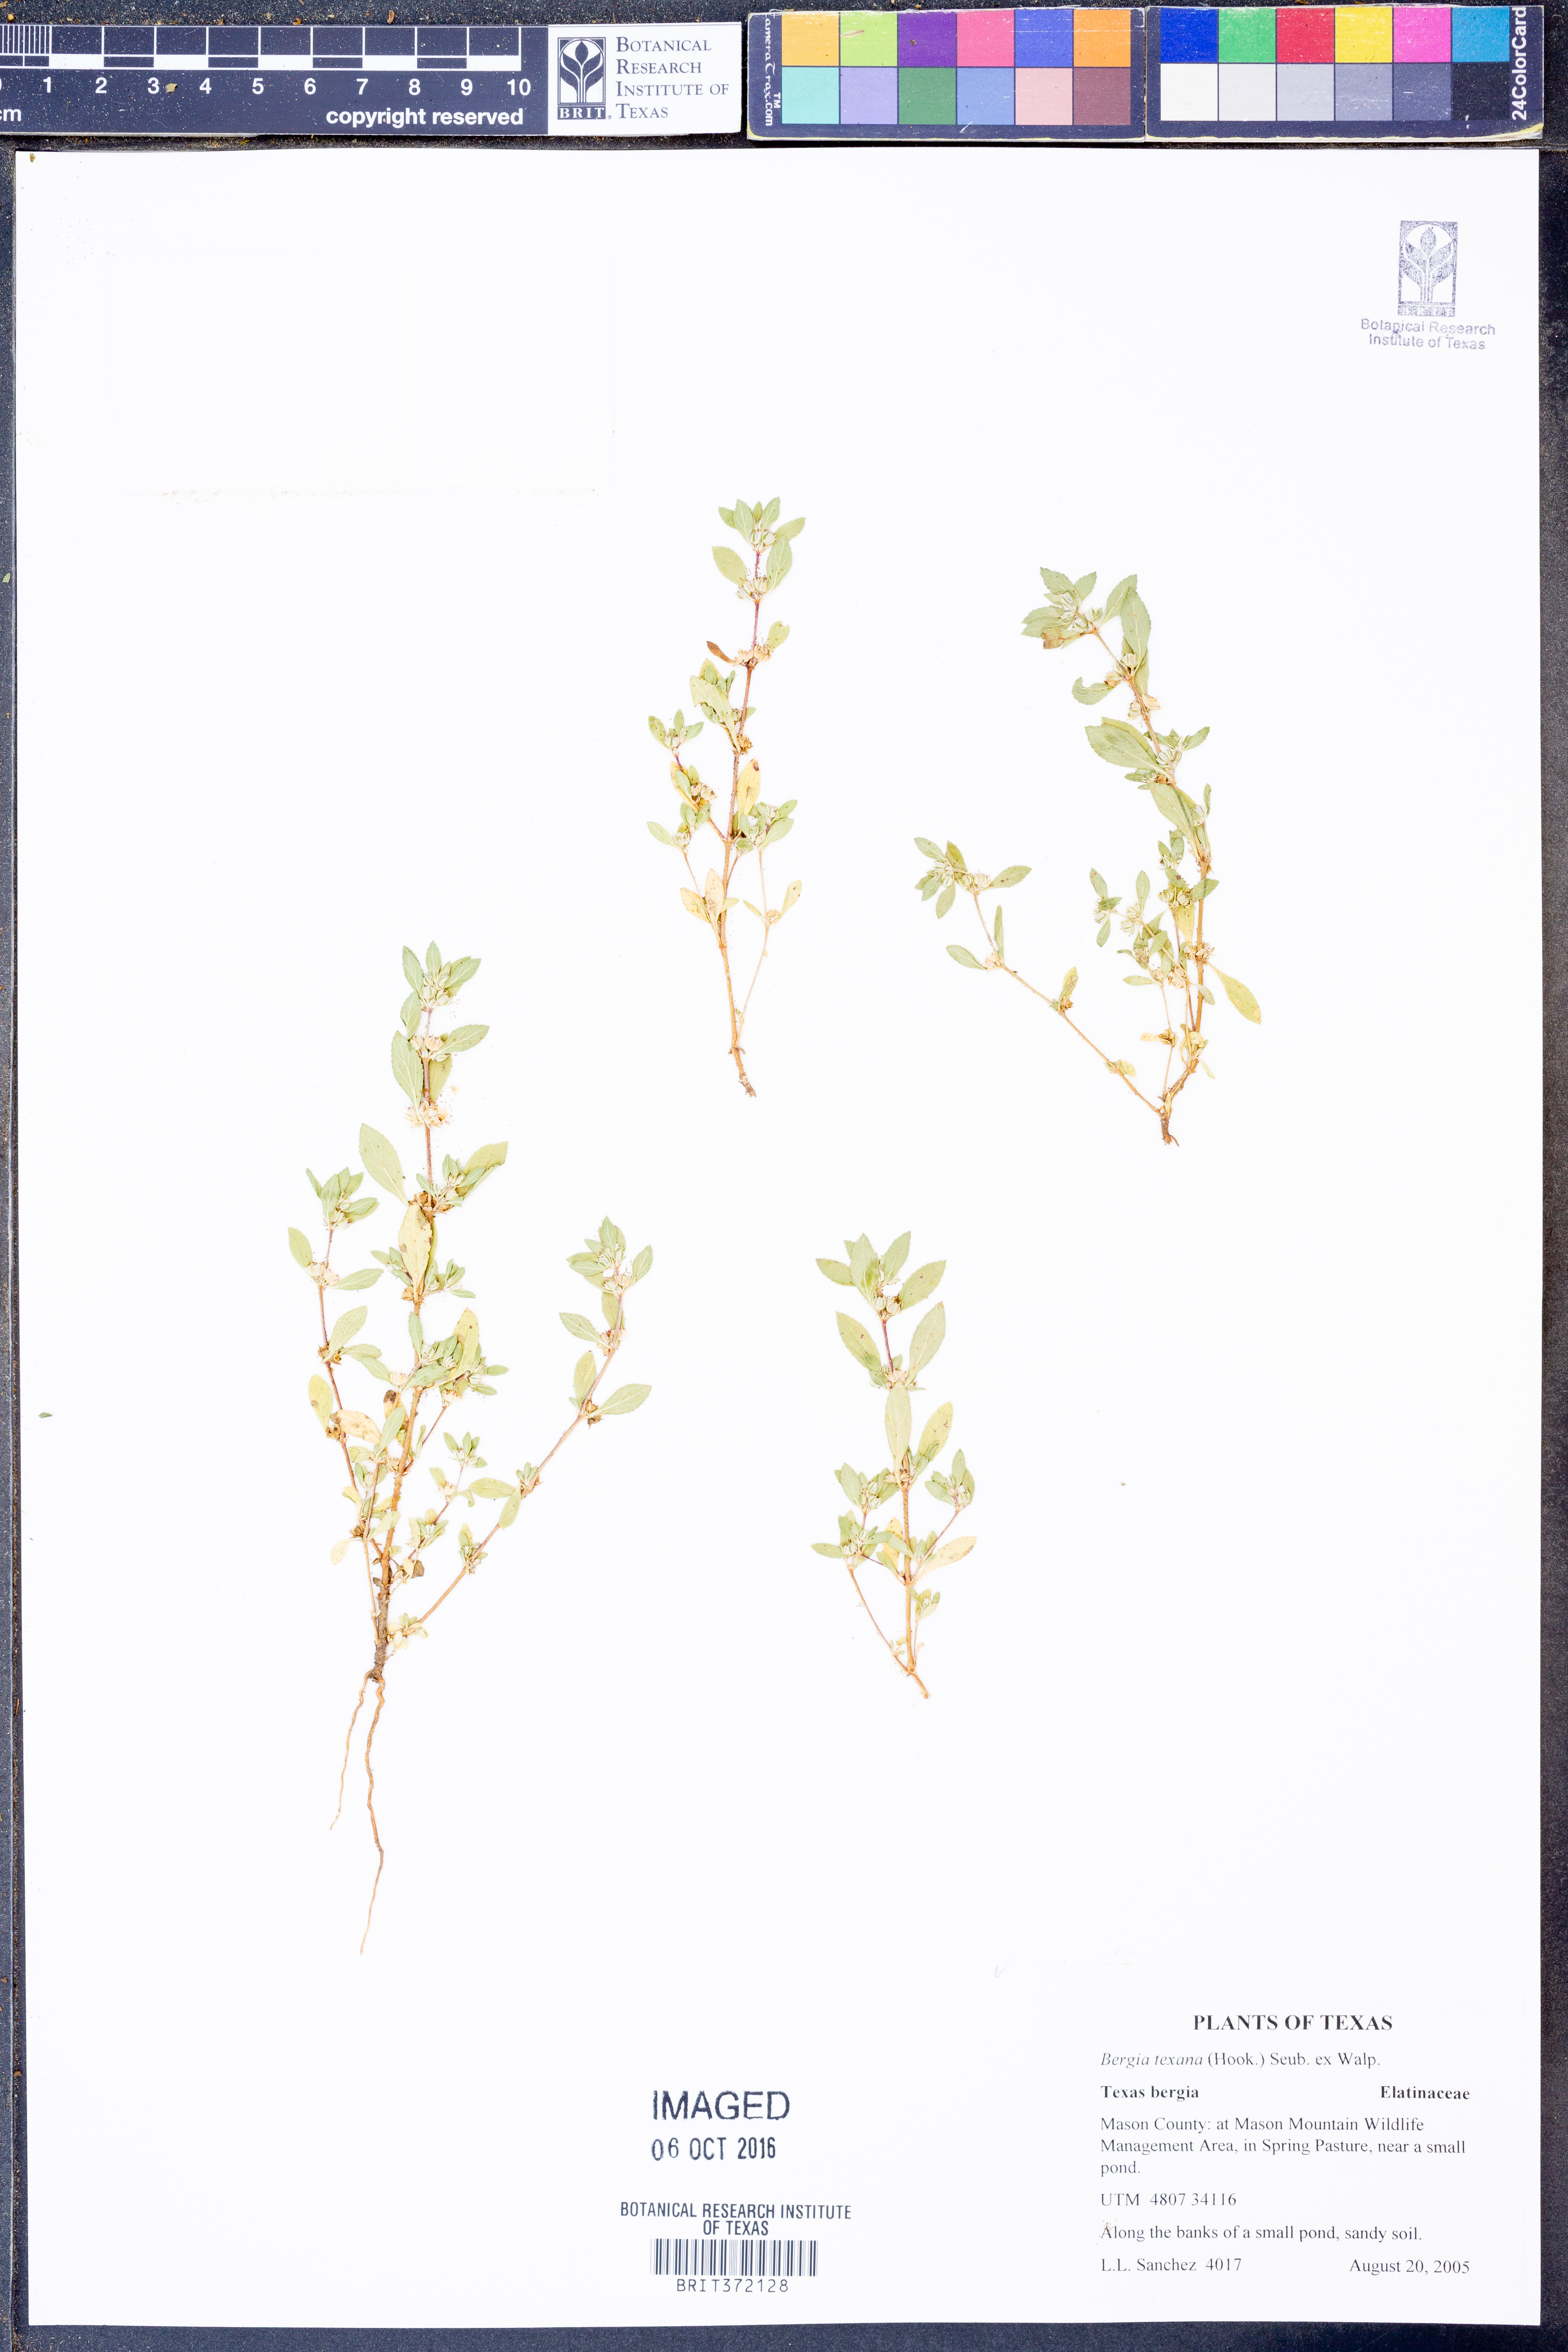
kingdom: Plantae
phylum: Tracheophyta
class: Magnoliopsida
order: Malpighiales
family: Elatinaceae
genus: Bergia
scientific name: Bergia texana
